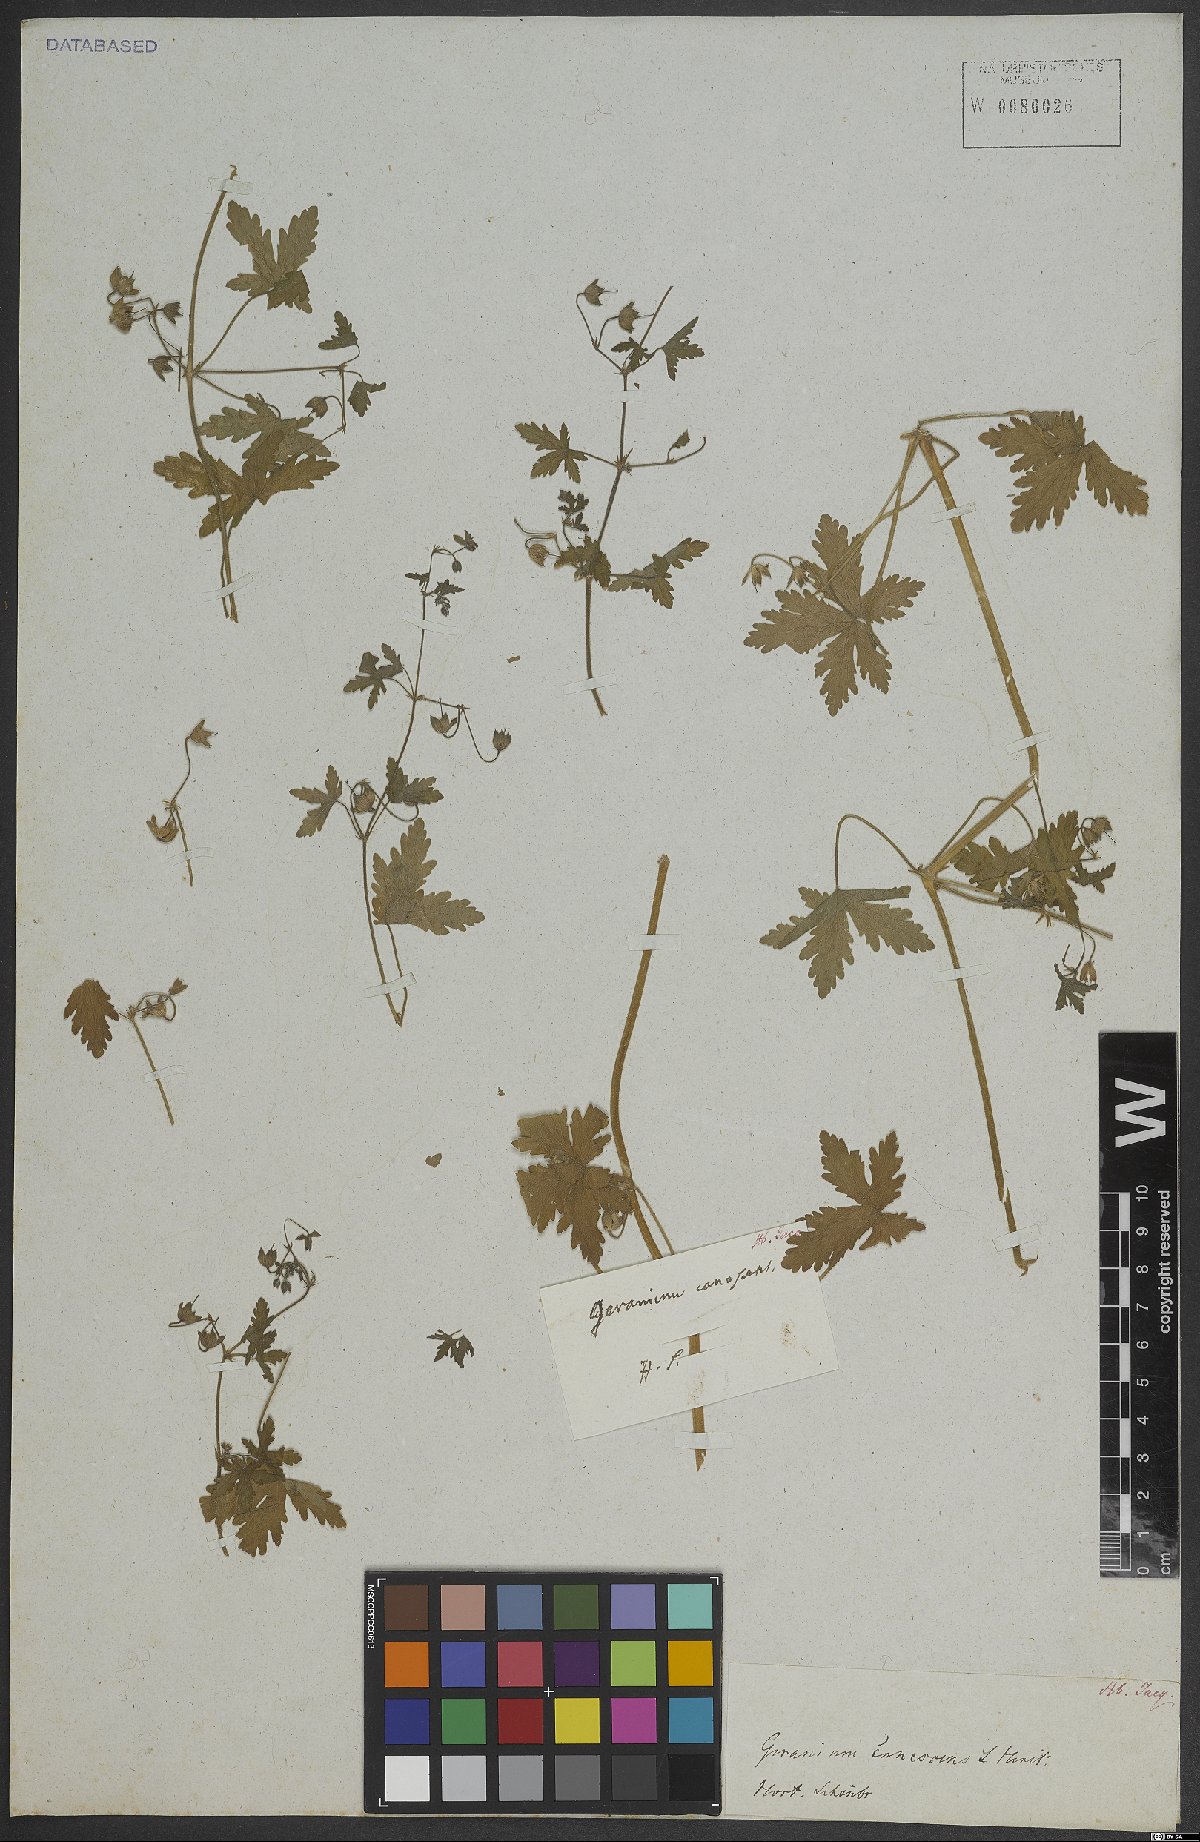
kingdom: Plantae
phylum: Tracheophyta
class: Magnoliopsida
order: Geraniales
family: Geraniaceae
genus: Geranium
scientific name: Geranium
